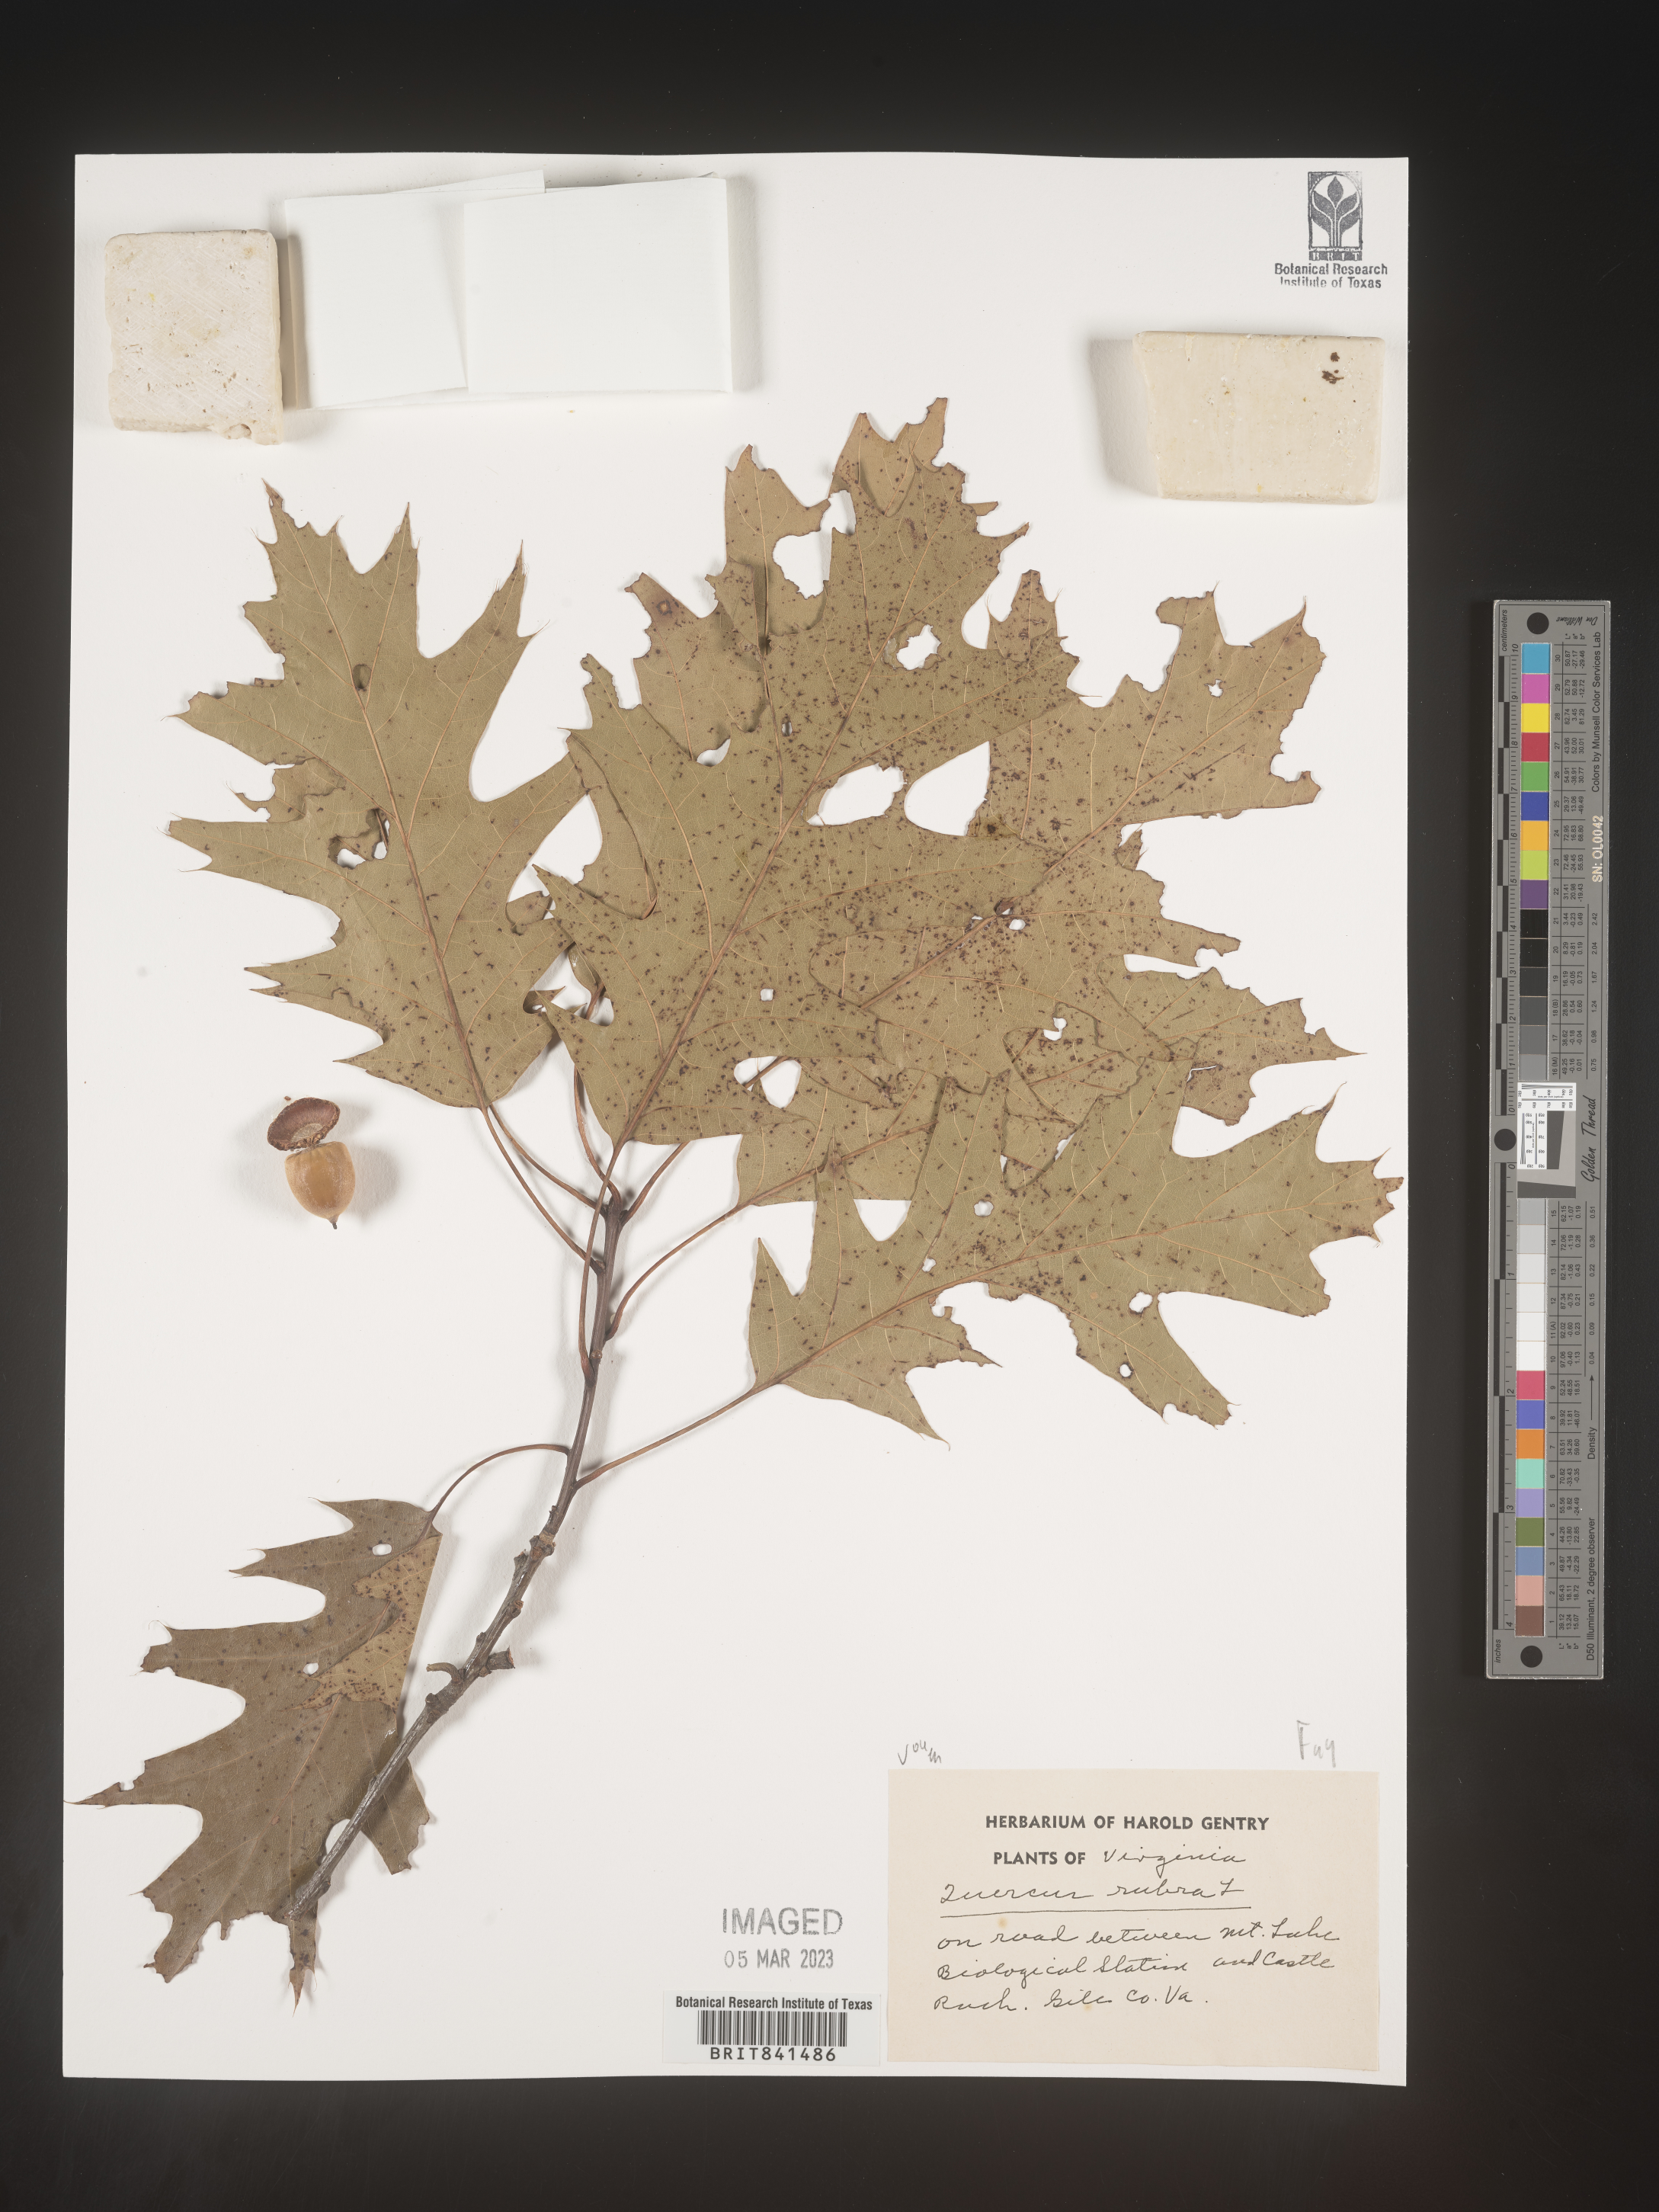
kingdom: Plantae
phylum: Tracheophyta
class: Magnoliopsida
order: Fagales
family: Fagaceae
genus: Quercus
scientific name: Quercus rubra
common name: Red oak
